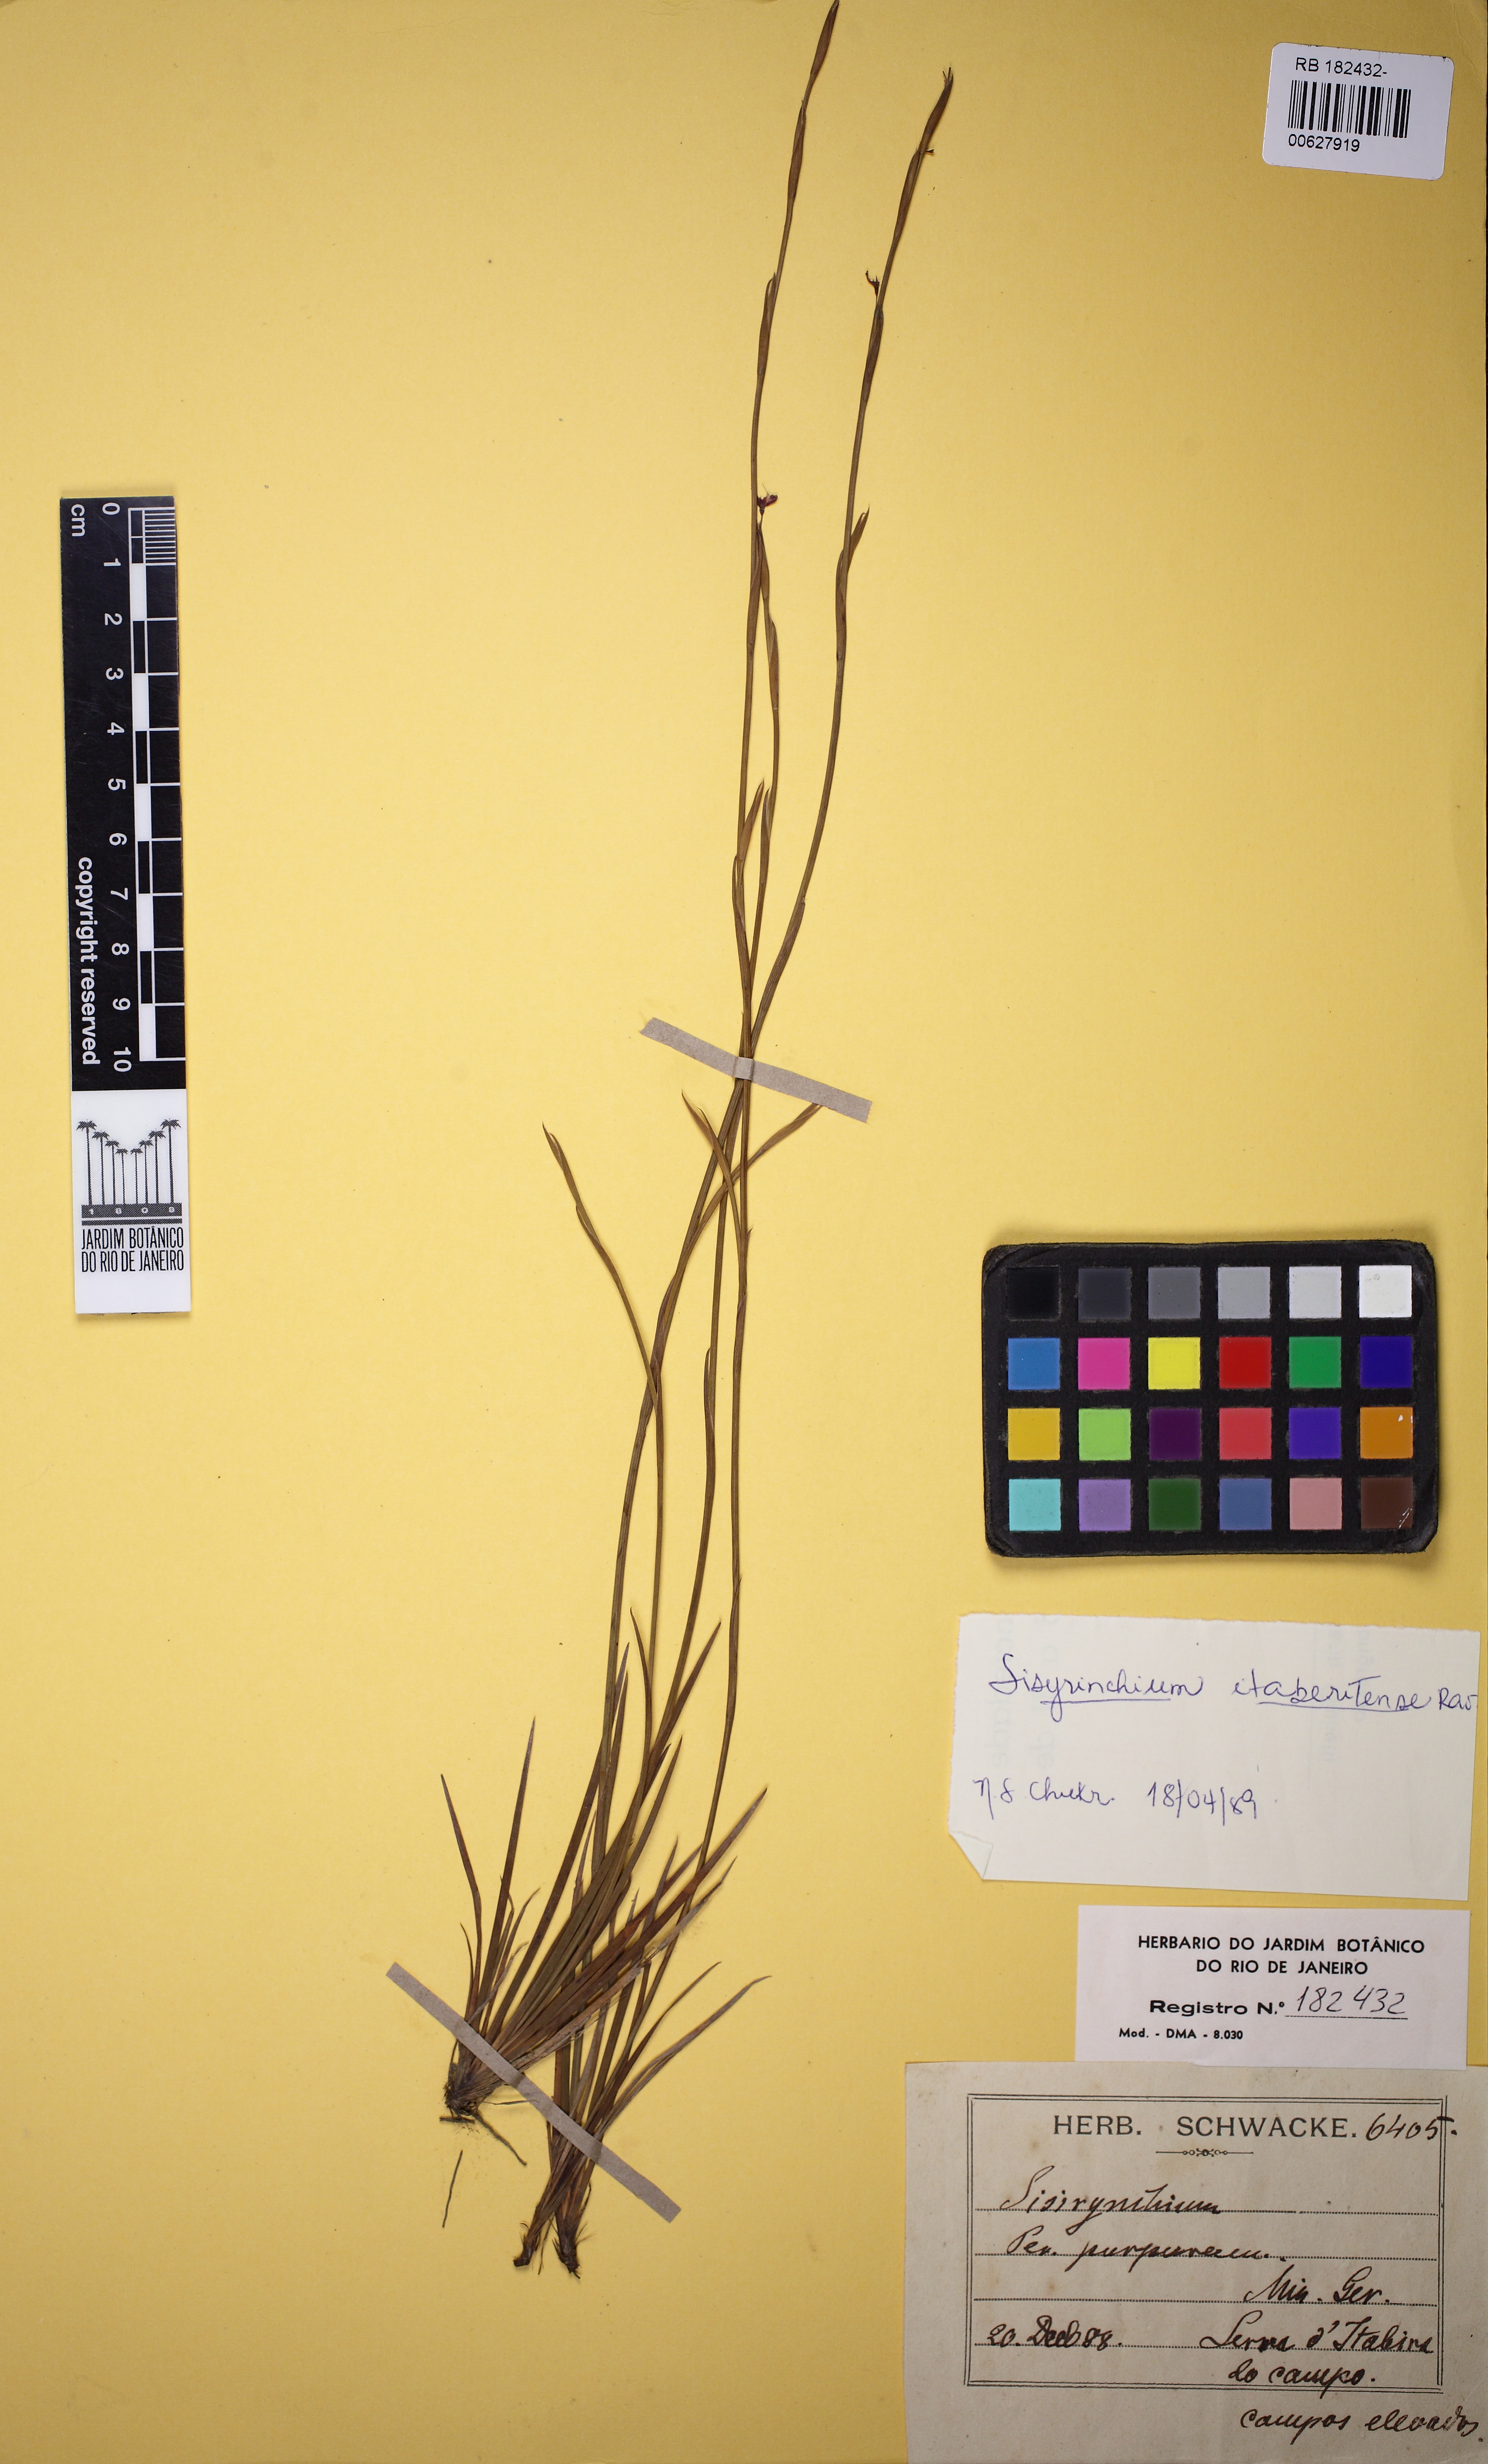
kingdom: Plantae
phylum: Tracheophyta
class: Liliopsida
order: Asparagales
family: Iridaceae
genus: Sisyrinchium
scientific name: Sisyrinchium itabiritense
